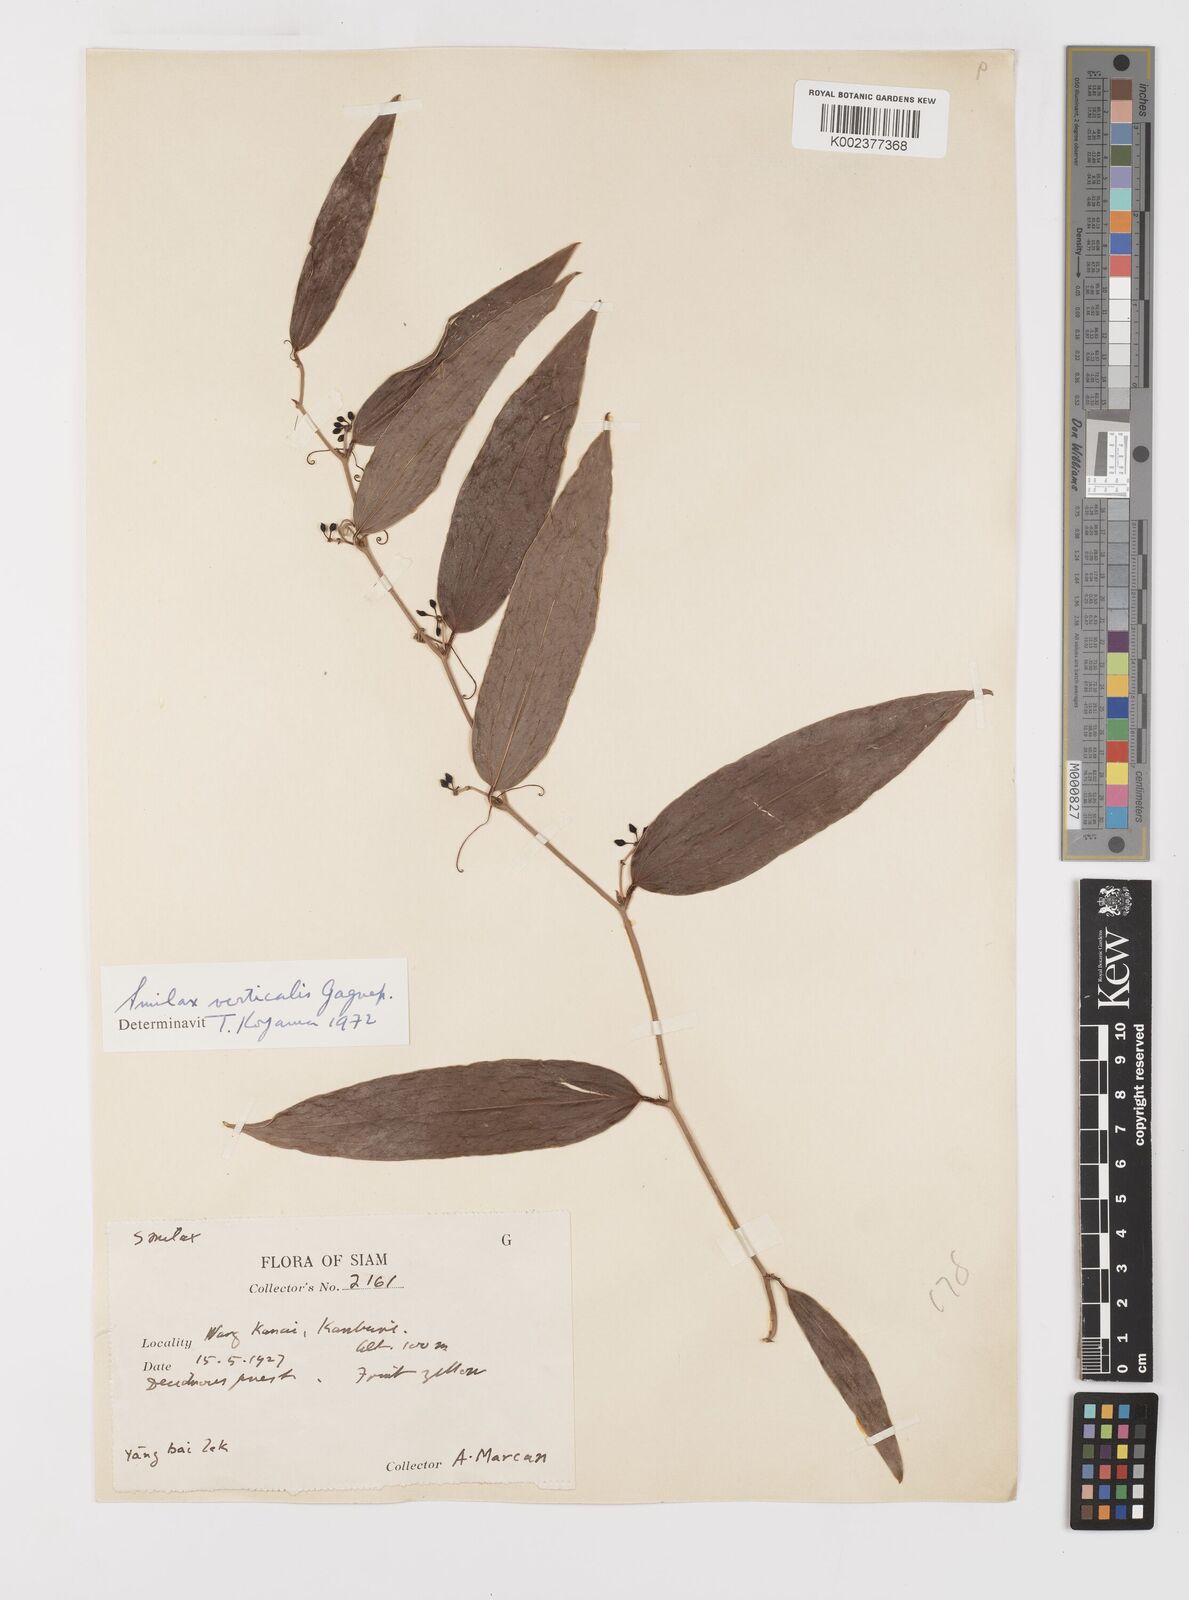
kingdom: Plantae
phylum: Tracheophyta
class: Liliopsida
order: Liliales
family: Smilacaceae
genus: Smilax
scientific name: Smilax verticalis
